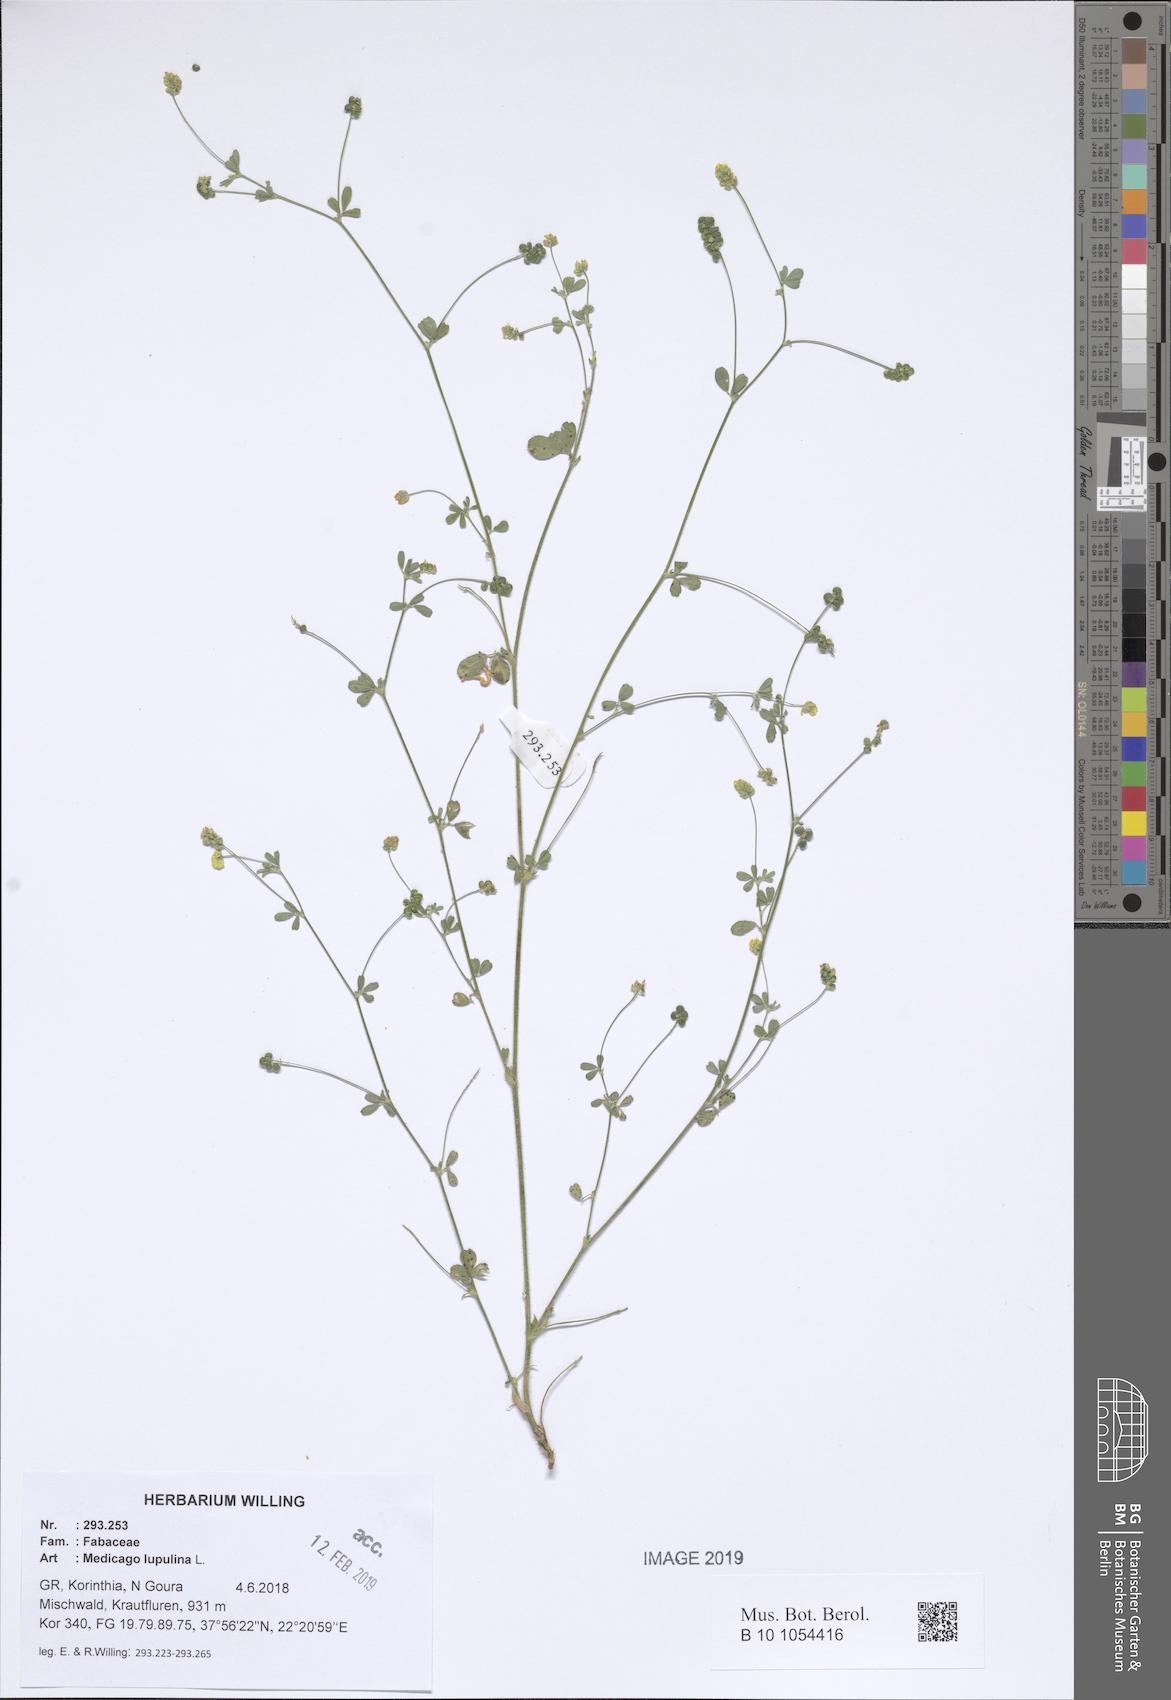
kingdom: Plantae
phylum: Tracheophyta
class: Magnoliopsida
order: Fabales
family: Fabaceae
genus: Medicago
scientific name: Medicago lupulina
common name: Black medick
